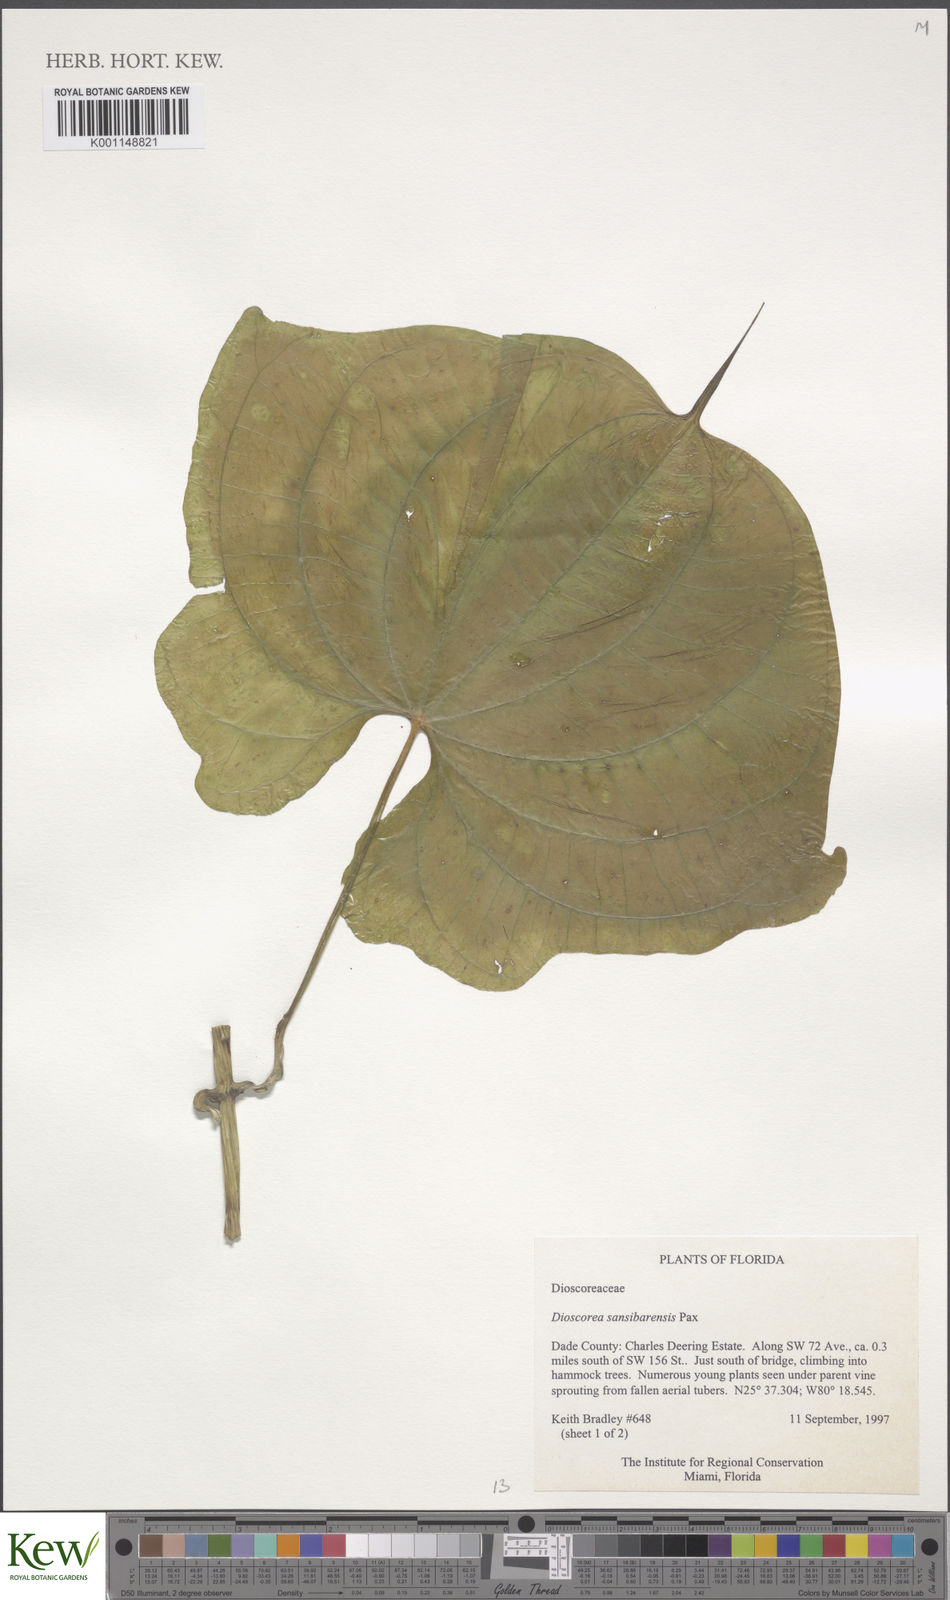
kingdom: Plantae
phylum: Tracheophyta
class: Liliopsida
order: Dioscoreales
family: Dioscoreaceae
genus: Dioscorea
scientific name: Dioscorea sansibarensis
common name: Zanzibar yam
